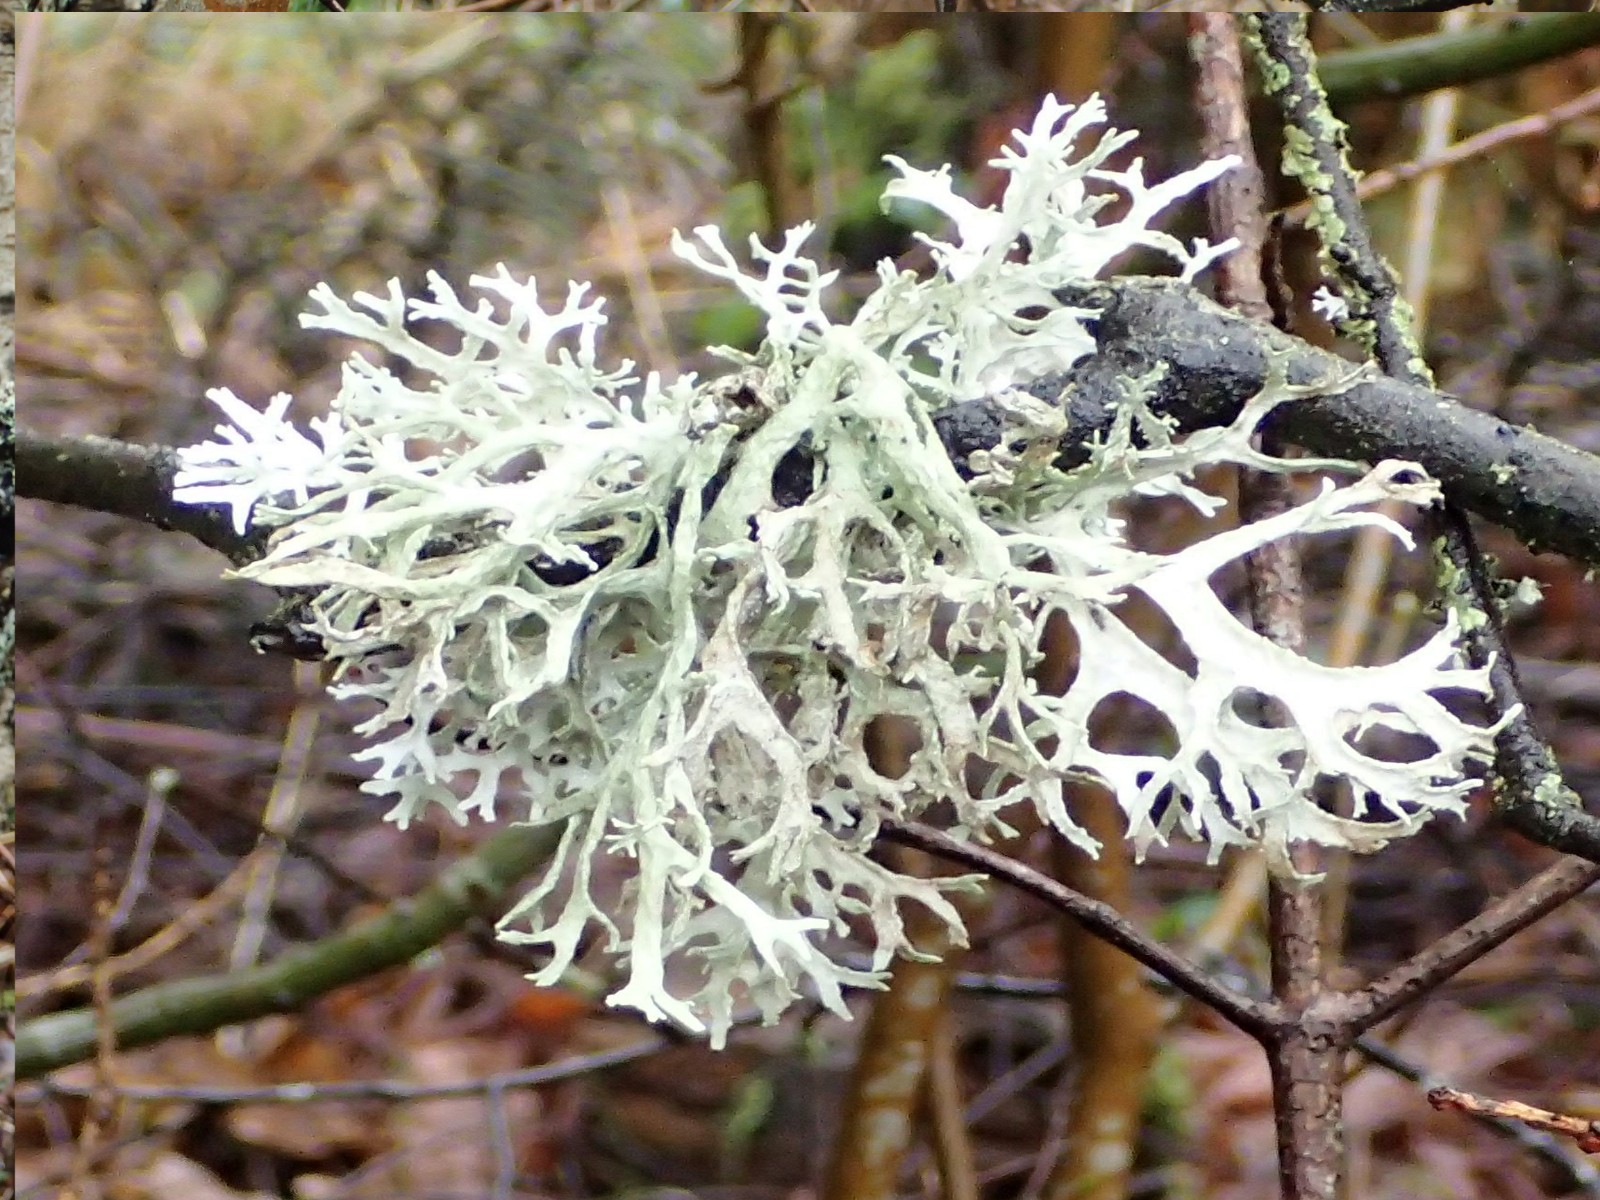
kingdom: Fungi
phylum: Ascomycota
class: Lecanoromycetes
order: Lecanorales
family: Parmeliaceae
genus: Evernia
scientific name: Evernia prunastri
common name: almindelig slåenlav
